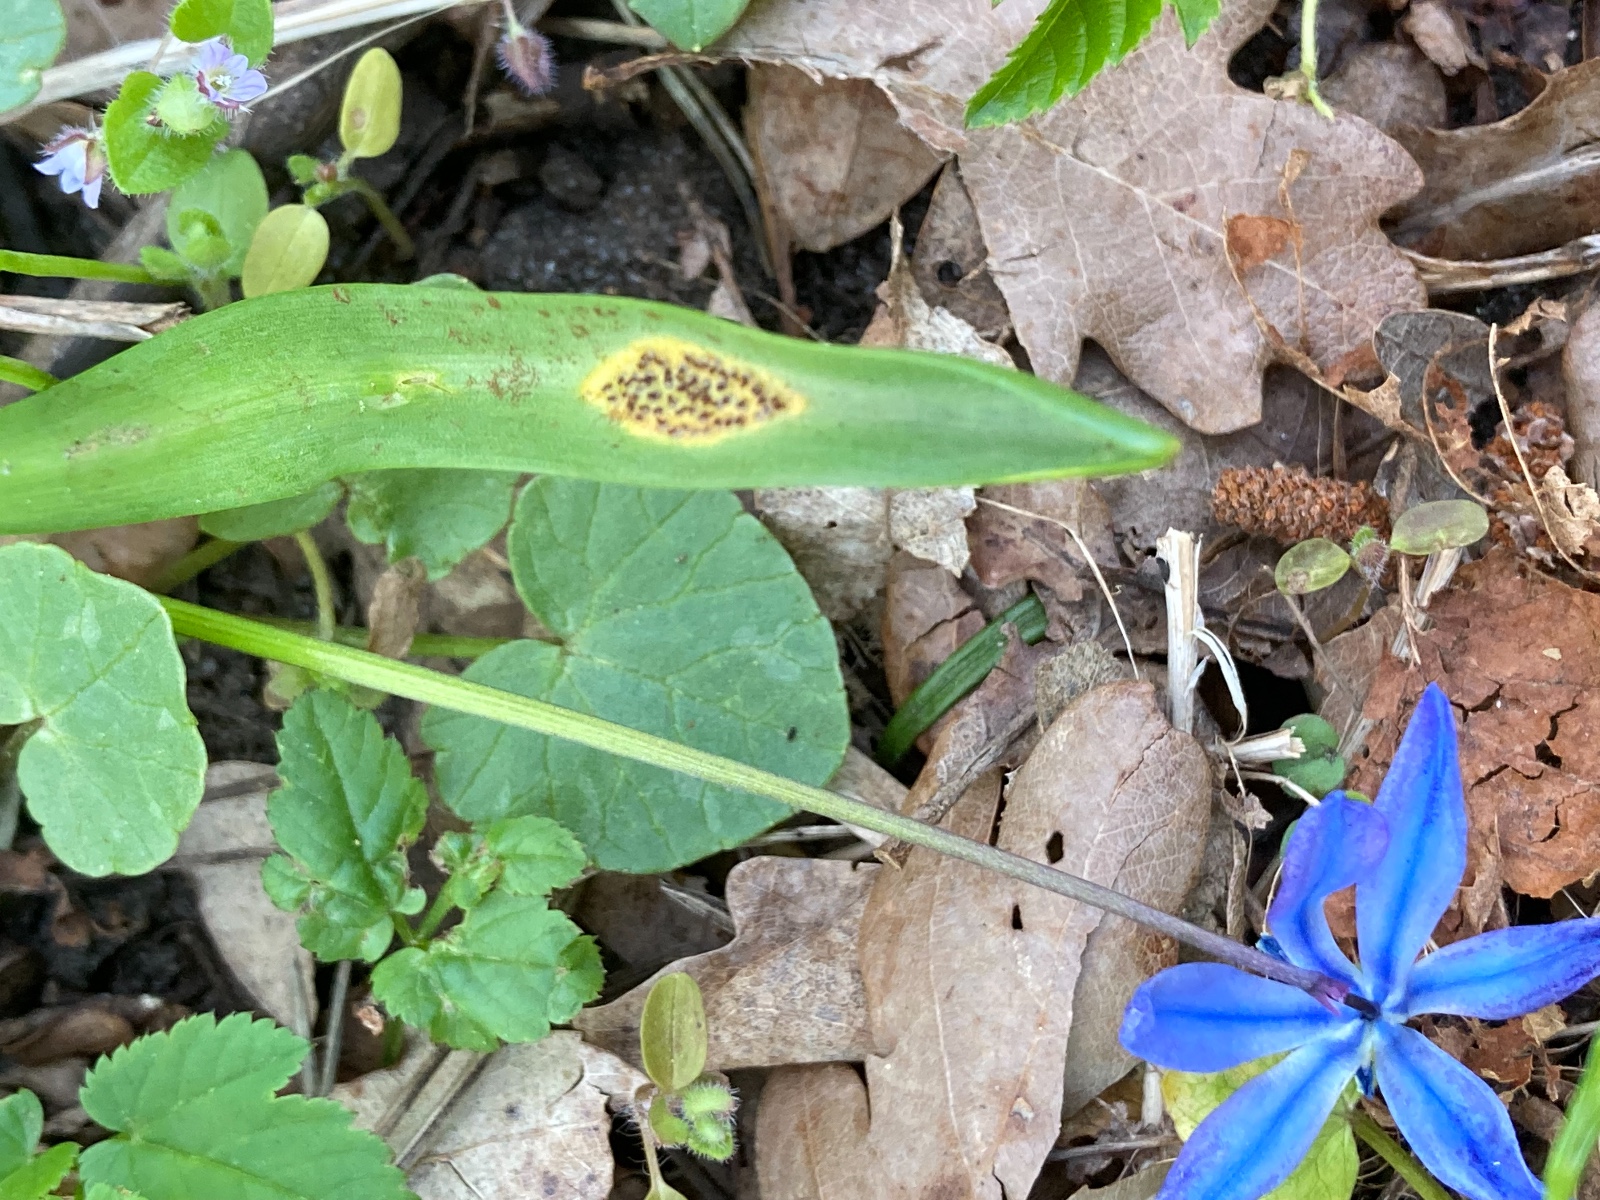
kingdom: Fungi
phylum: Basidiomycota
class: Pucciniomycetes
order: Pucciniales
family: Pucciniaceae
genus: Puccinia
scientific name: Puccinia scillae
